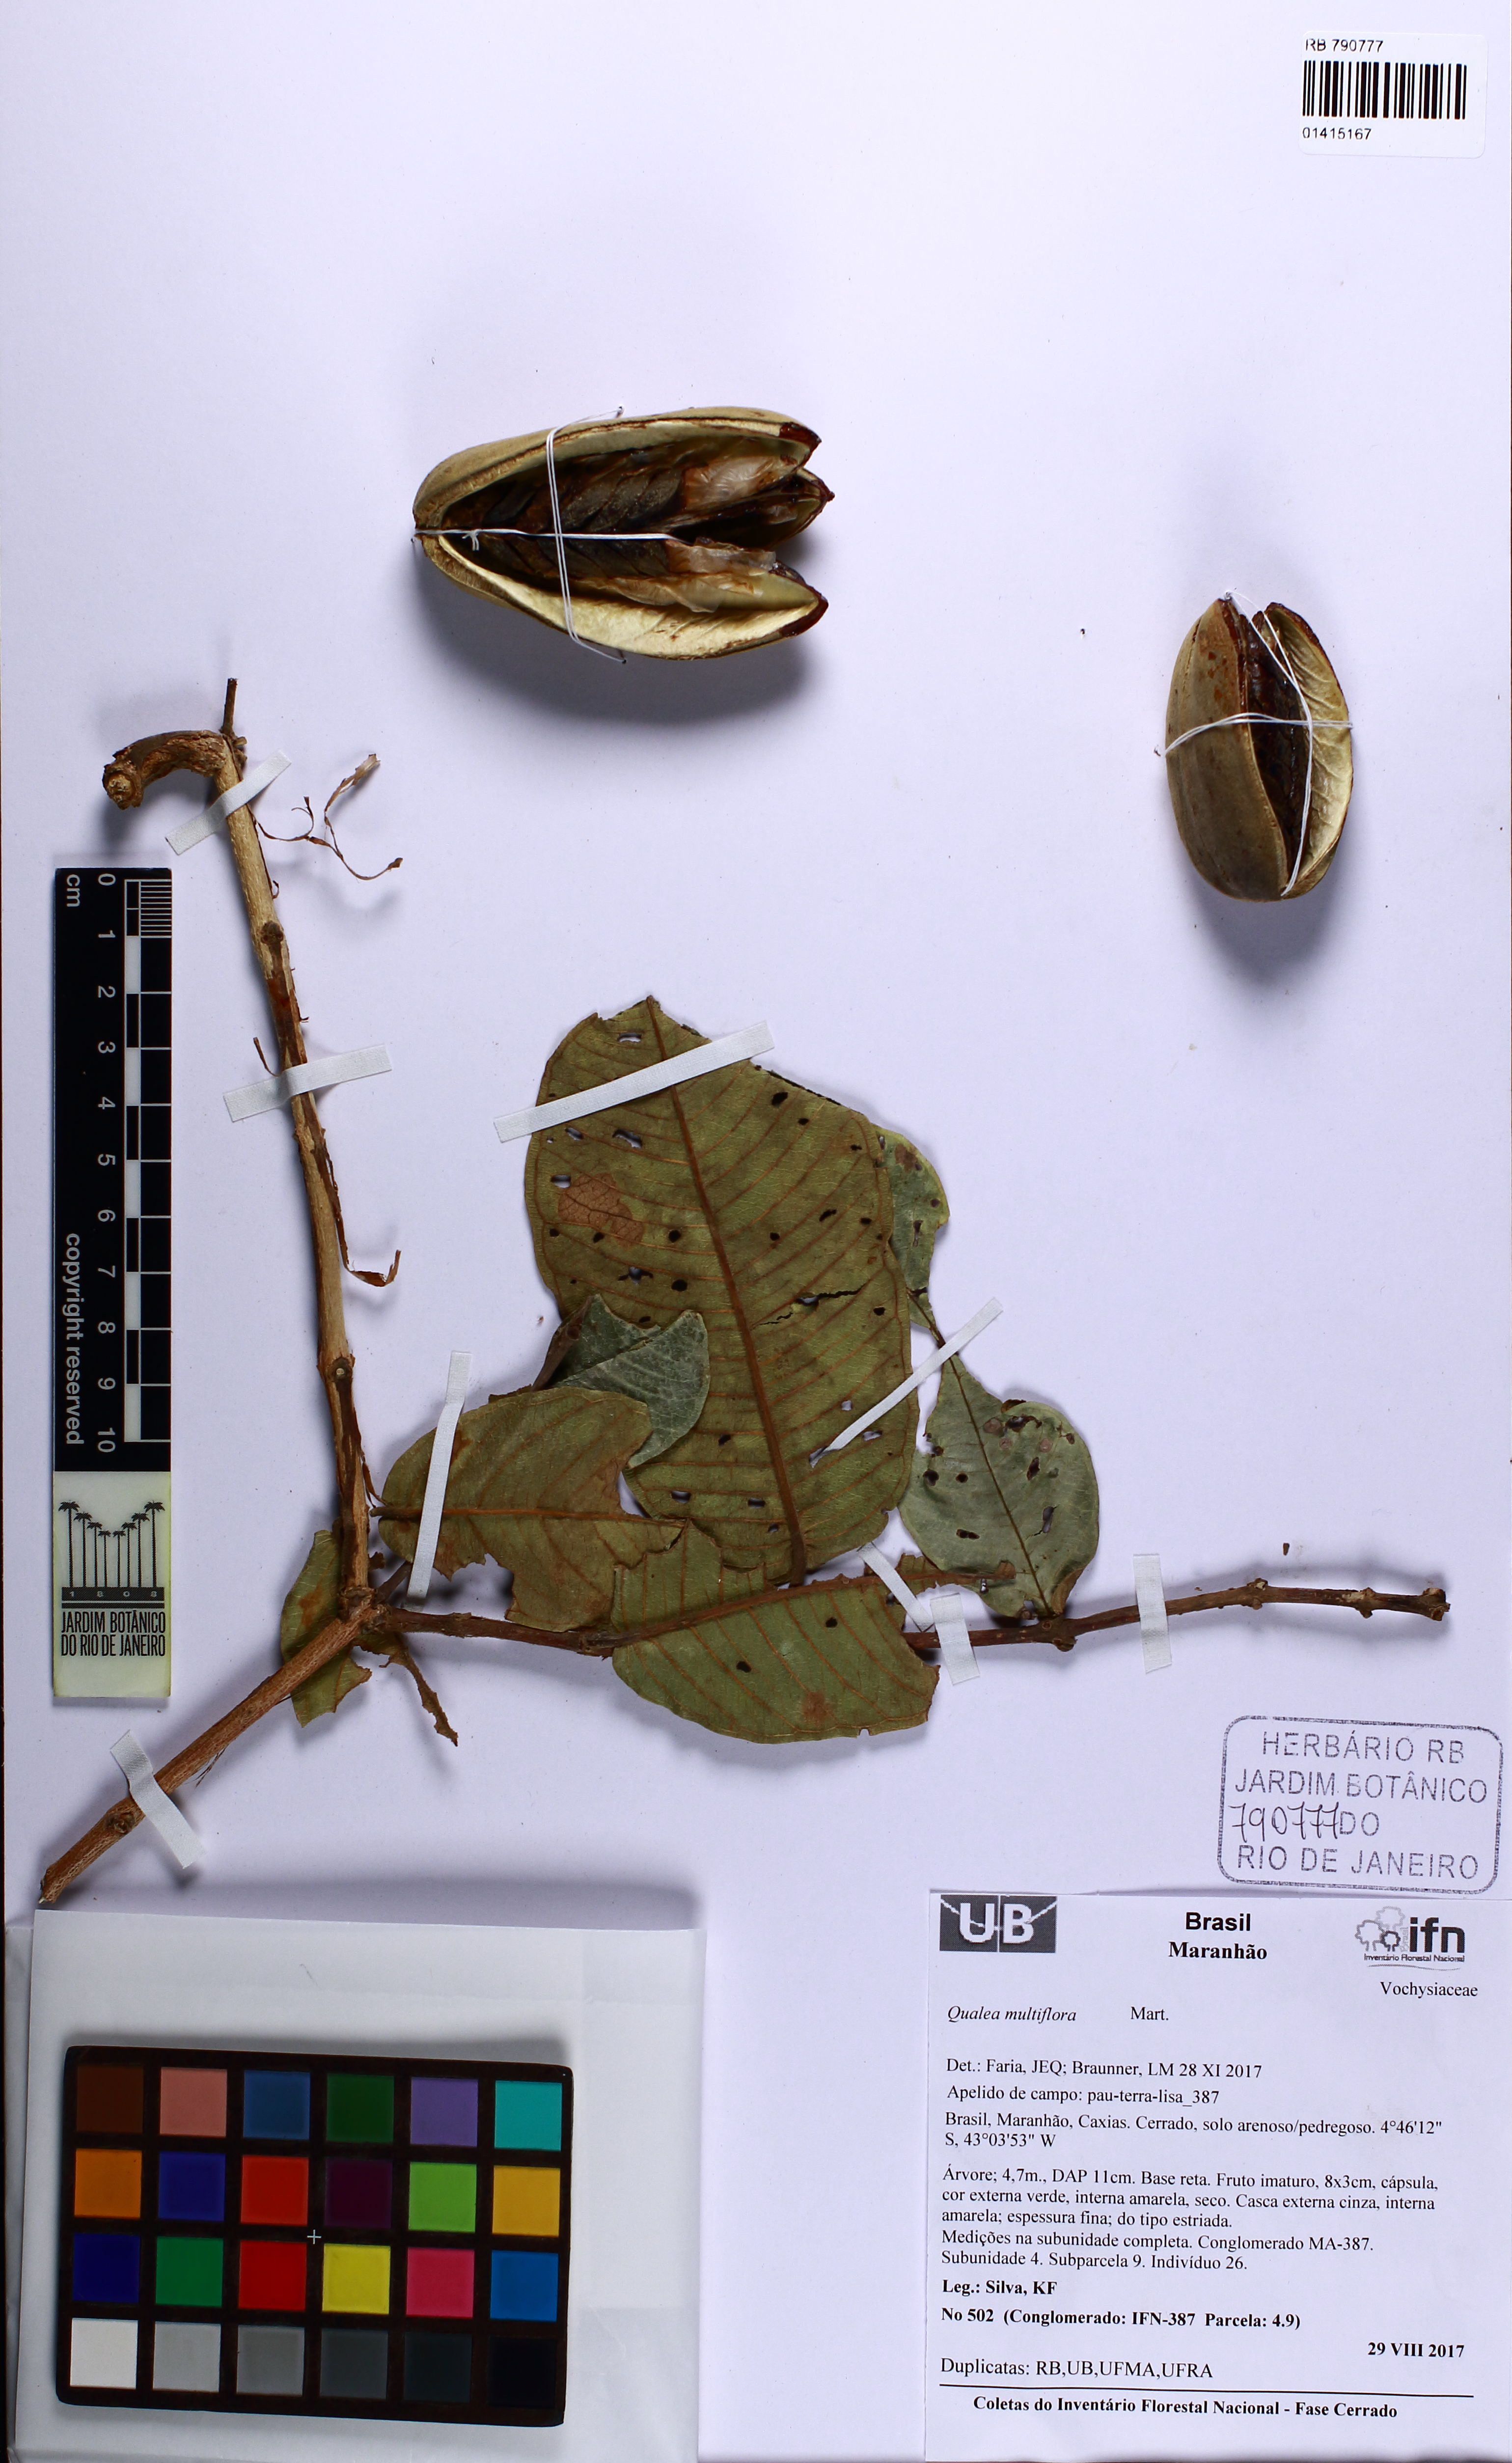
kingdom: Plantae
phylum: Tracheophyta
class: Magnoliopsida
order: Myrtales
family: Vochysiaceae
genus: Qualea
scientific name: Qualea multiflora
